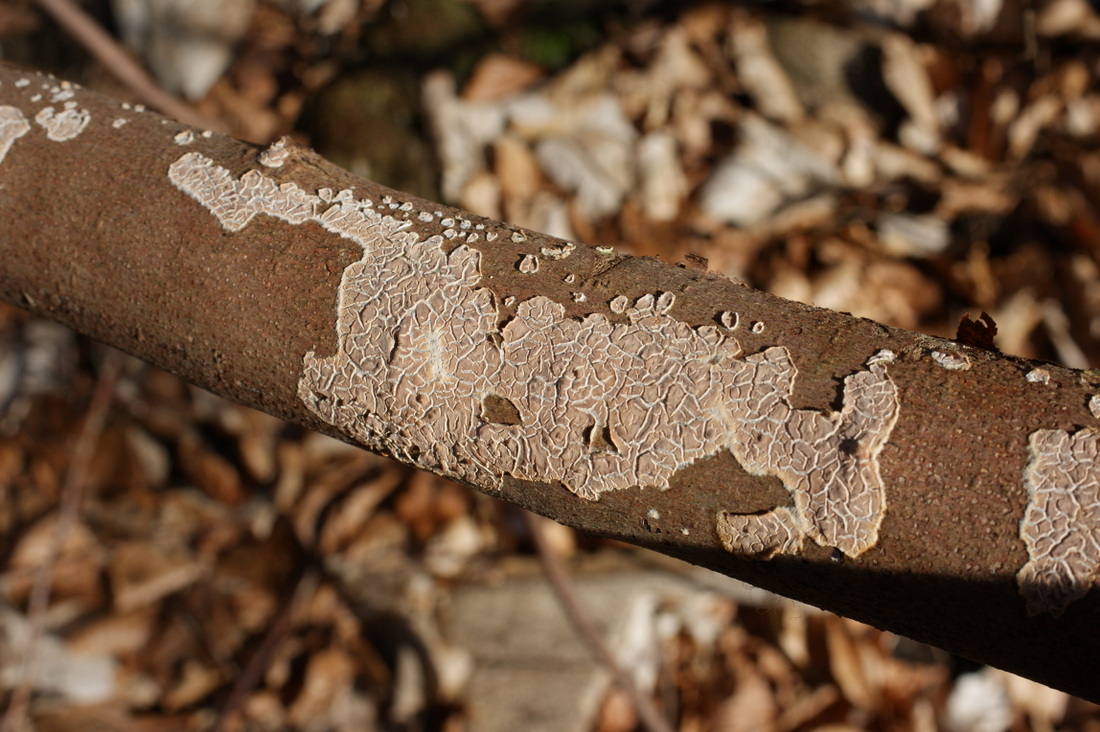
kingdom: Fungi
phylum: Basidiomycota
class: Agaricomycetes
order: Agaricales
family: Physalacriaceae
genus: Cylindrobasidium
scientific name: Cylindrobasidium evolvens
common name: sprækkehinde
